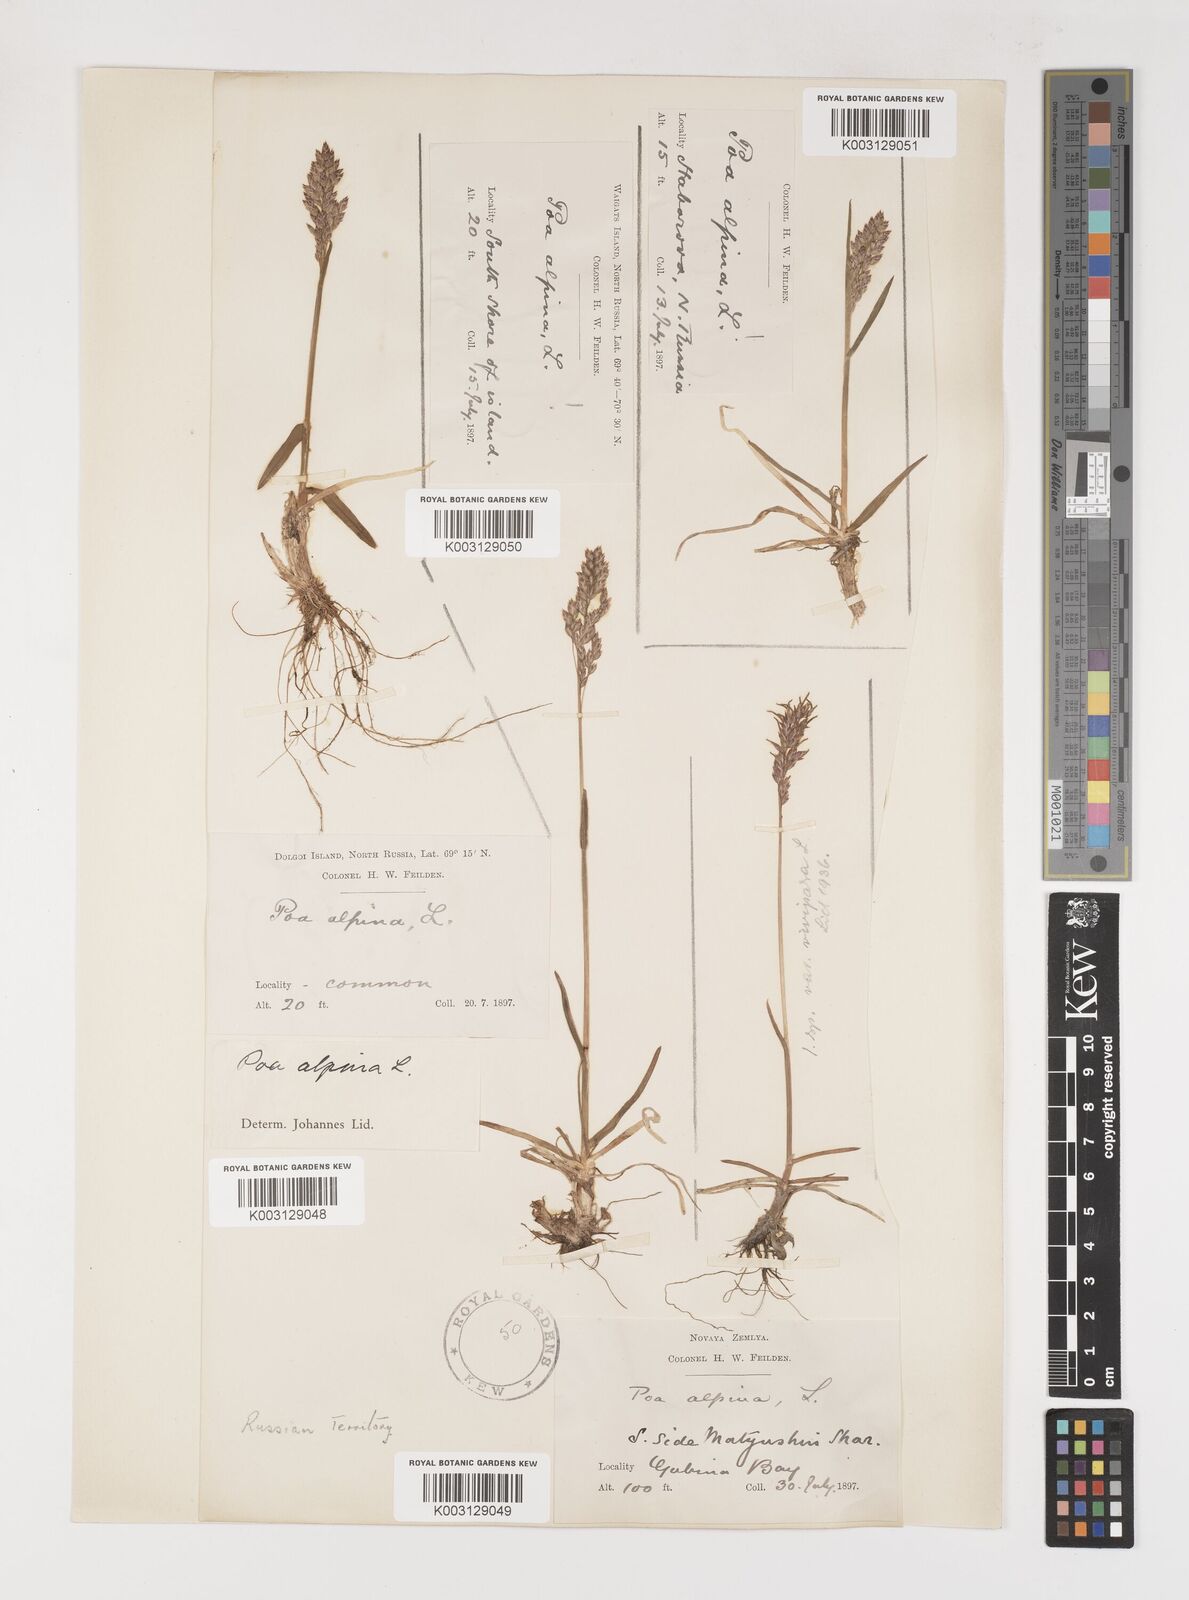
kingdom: Plantae
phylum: Tracheophyta
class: Liliopsida
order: Poales
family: Poaceae
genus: Poa
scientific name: Poa alpina
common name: Alpine bluegrass
